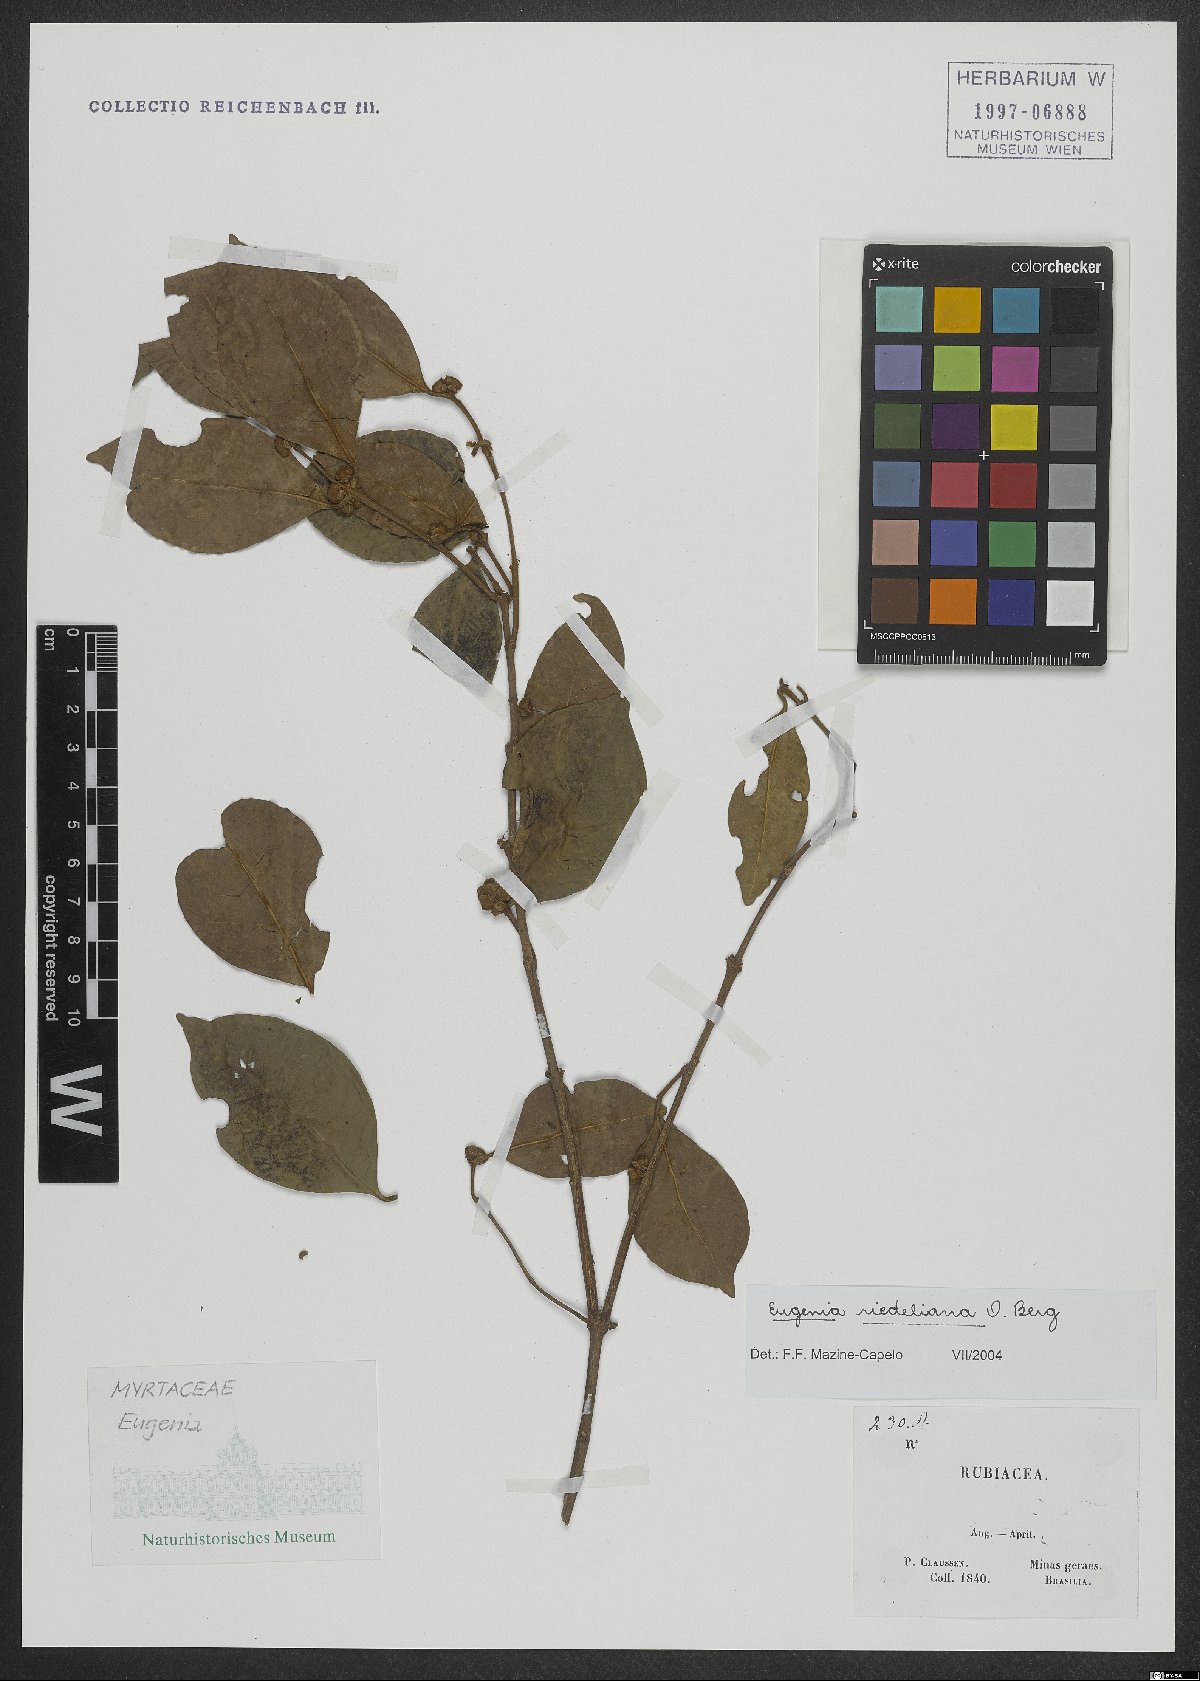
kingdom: Plantae
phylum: Tracheophyta
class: Magnoliopsida
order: Myrtales
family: Myrtaceae
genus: Eugenia
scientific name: Eugenia verticillata
